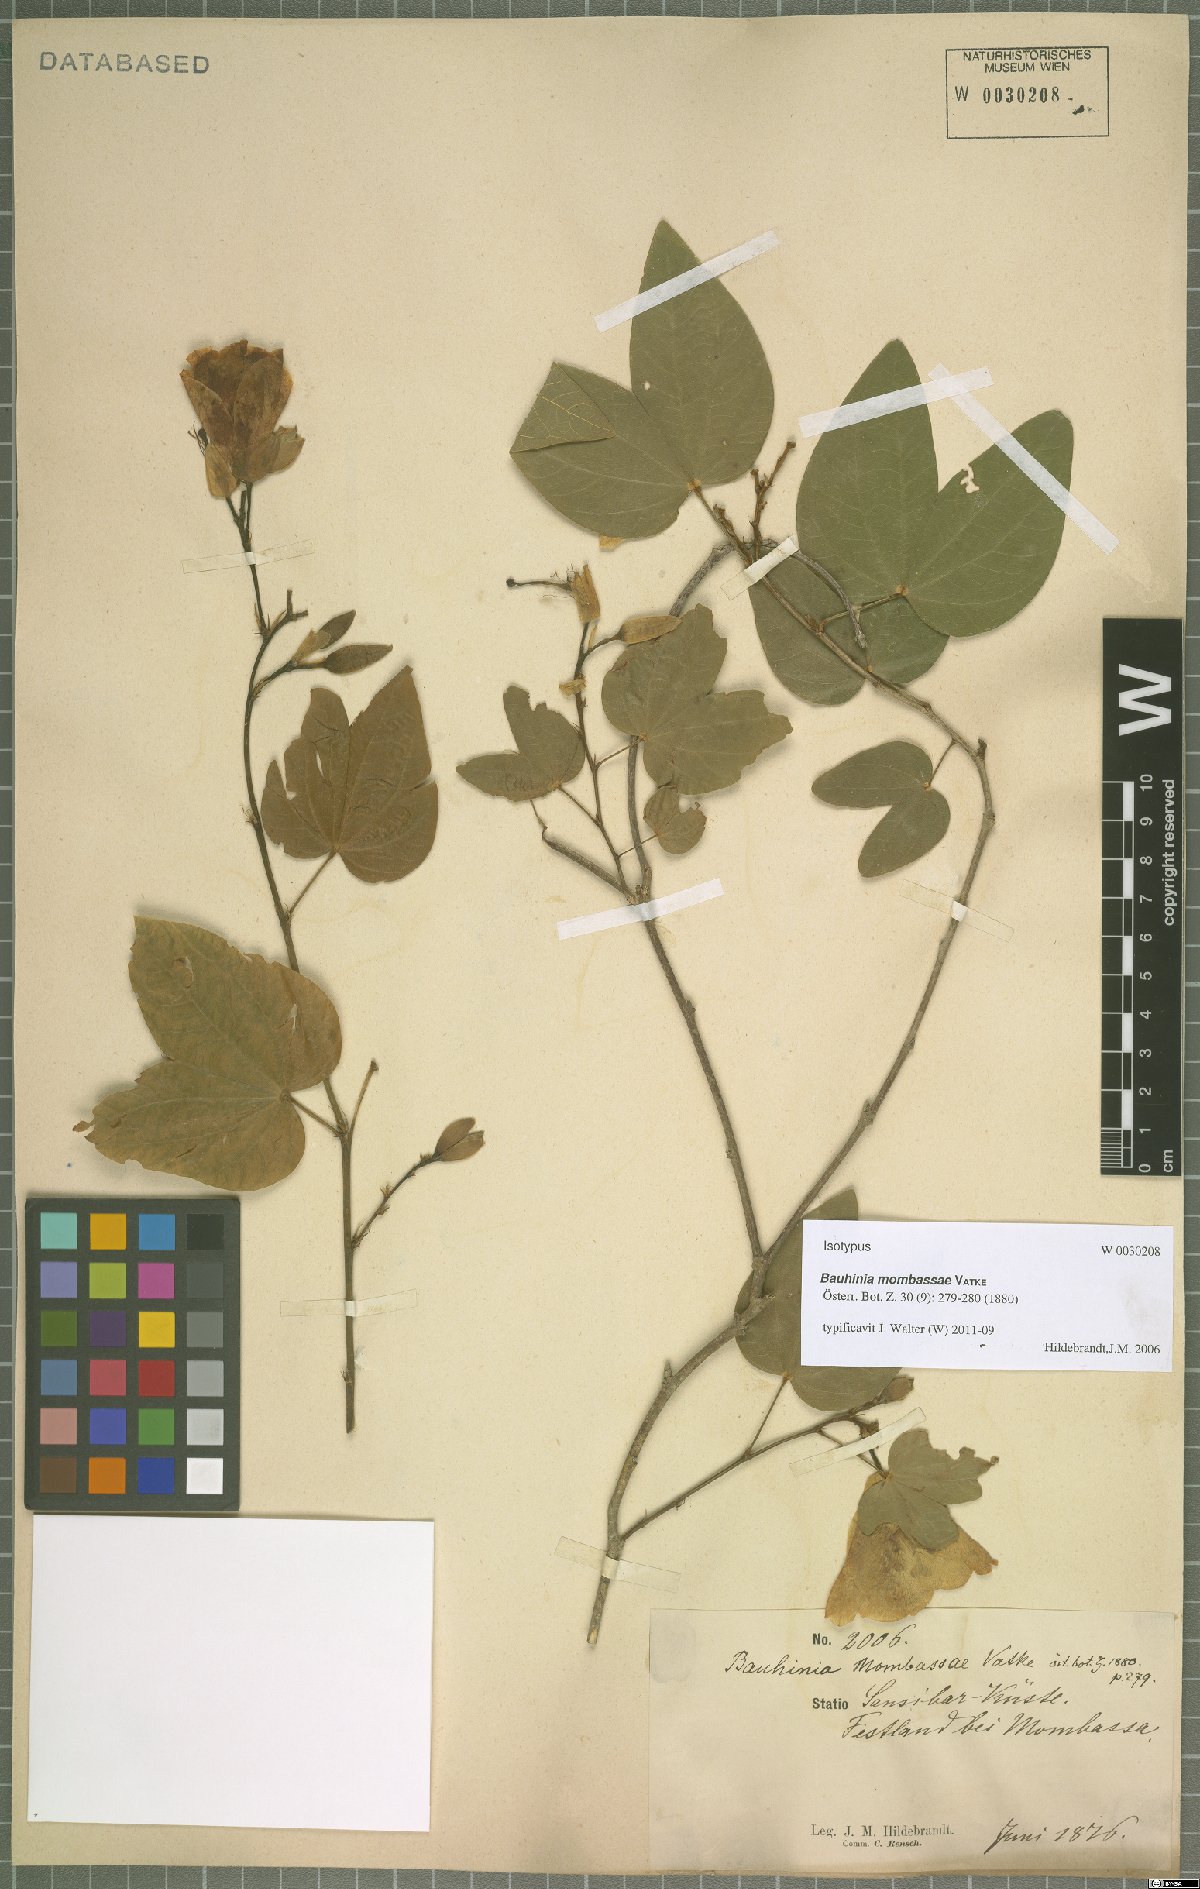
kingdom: Plantae
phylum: Tracheophyta
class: Magnoliopsida
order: Fabales
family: Fabaceae
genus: Bauhinia
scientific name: Bauhinia mombassae
